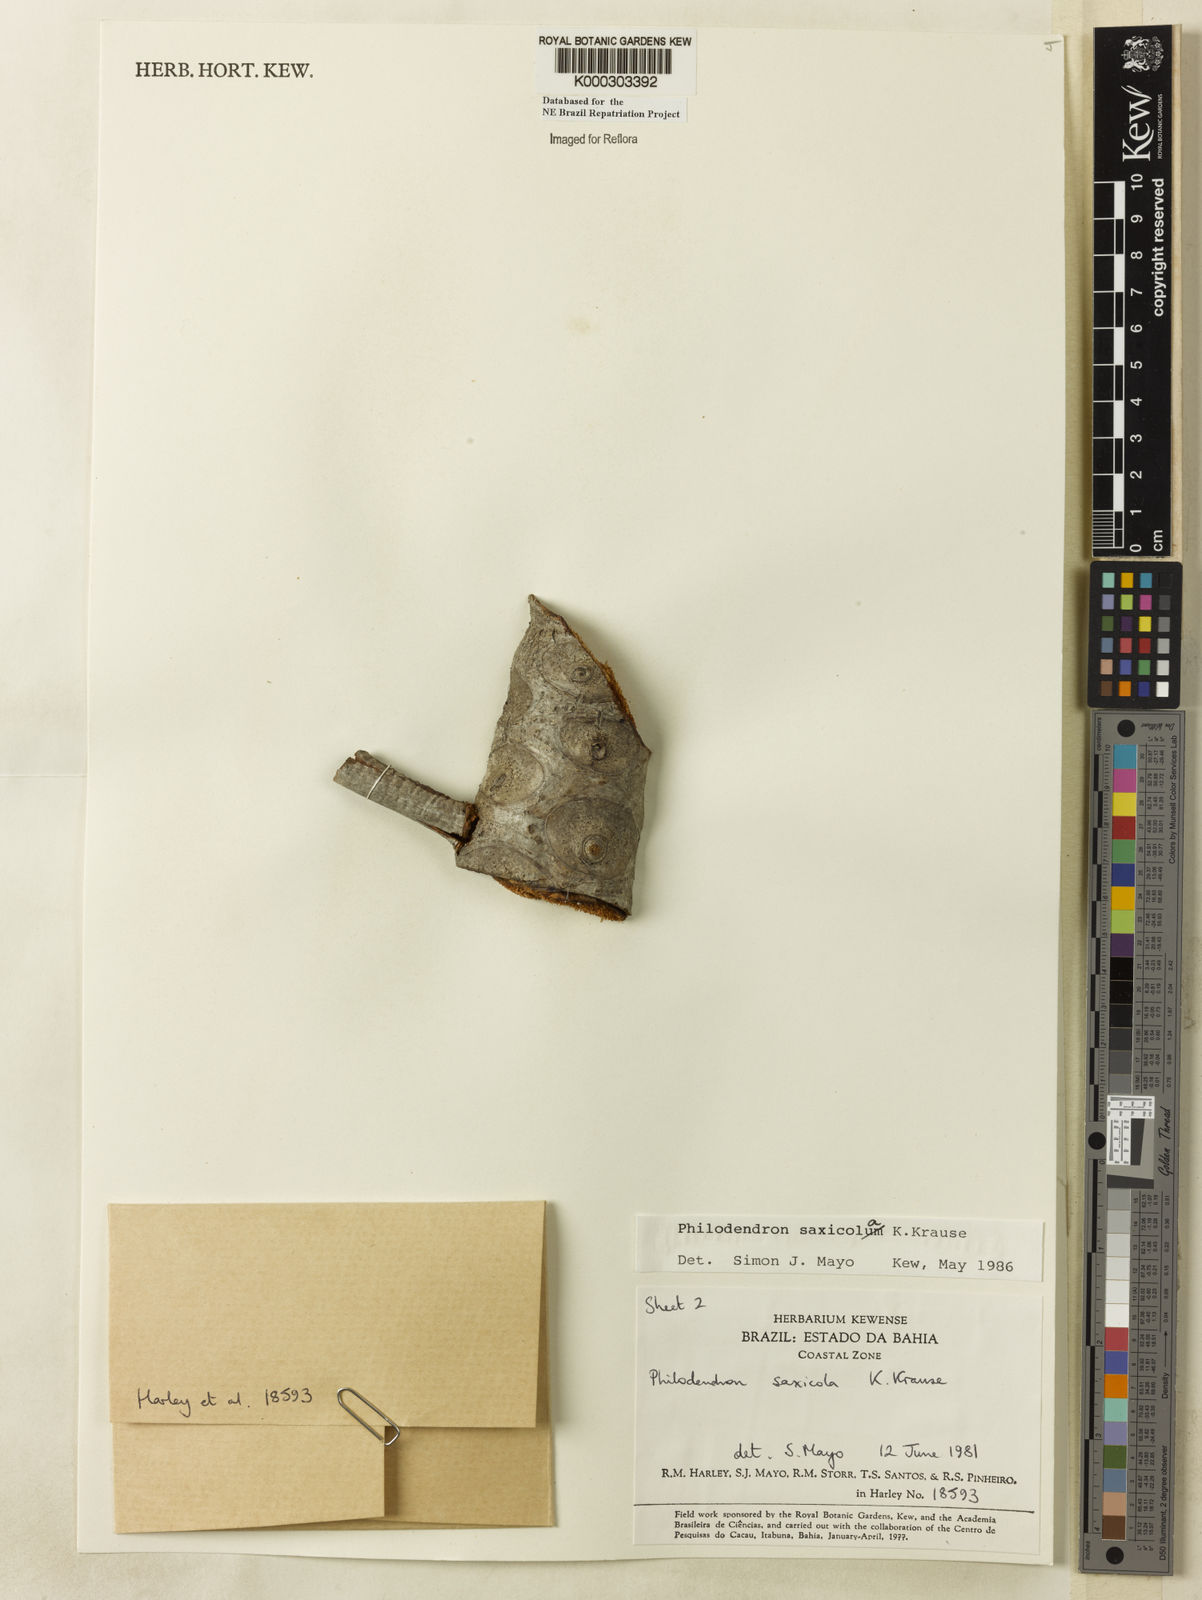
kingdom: Plantae
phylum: Tracheophyta
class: Liliopsida
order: Alismatales
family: Araceae
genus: Thaumatophyllum
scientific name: Thaumatophyllum saxicola
